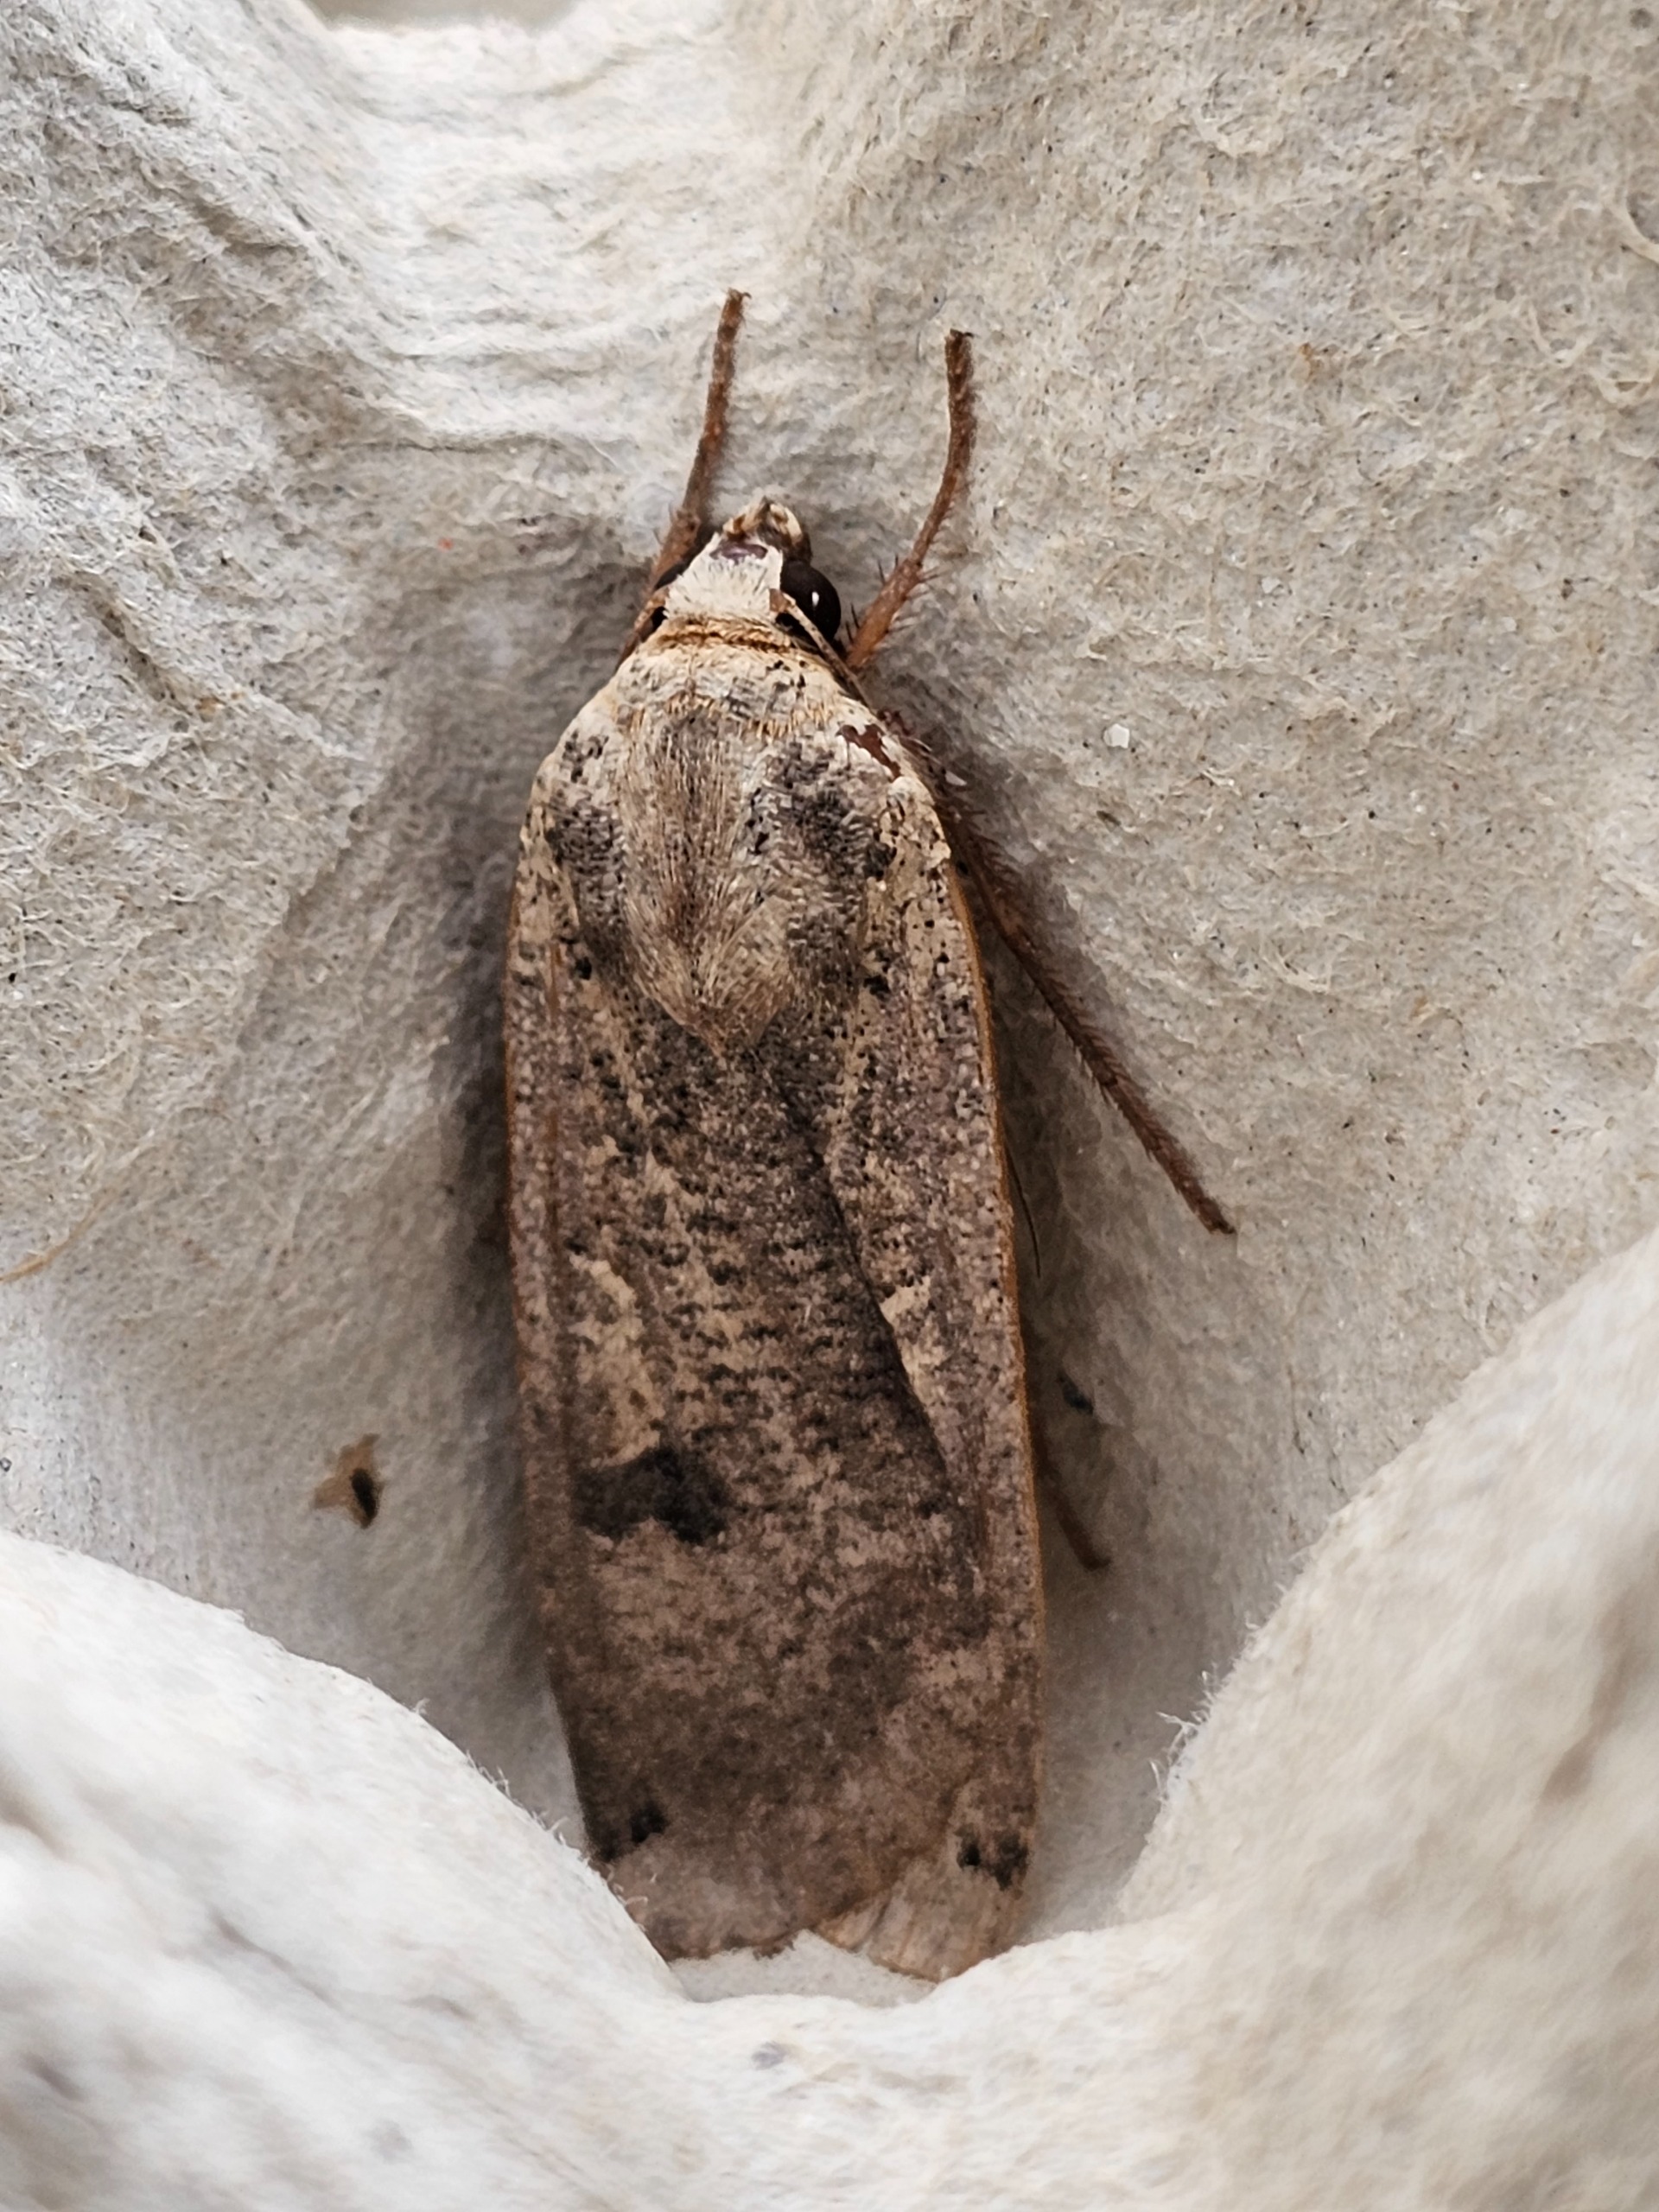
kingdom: Animalia
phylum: Arthropoda
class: Insecta
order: Lepidoptera
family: Noctuidae
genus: Noctua
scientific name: Noctua pronuba
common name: Stor smutugle
